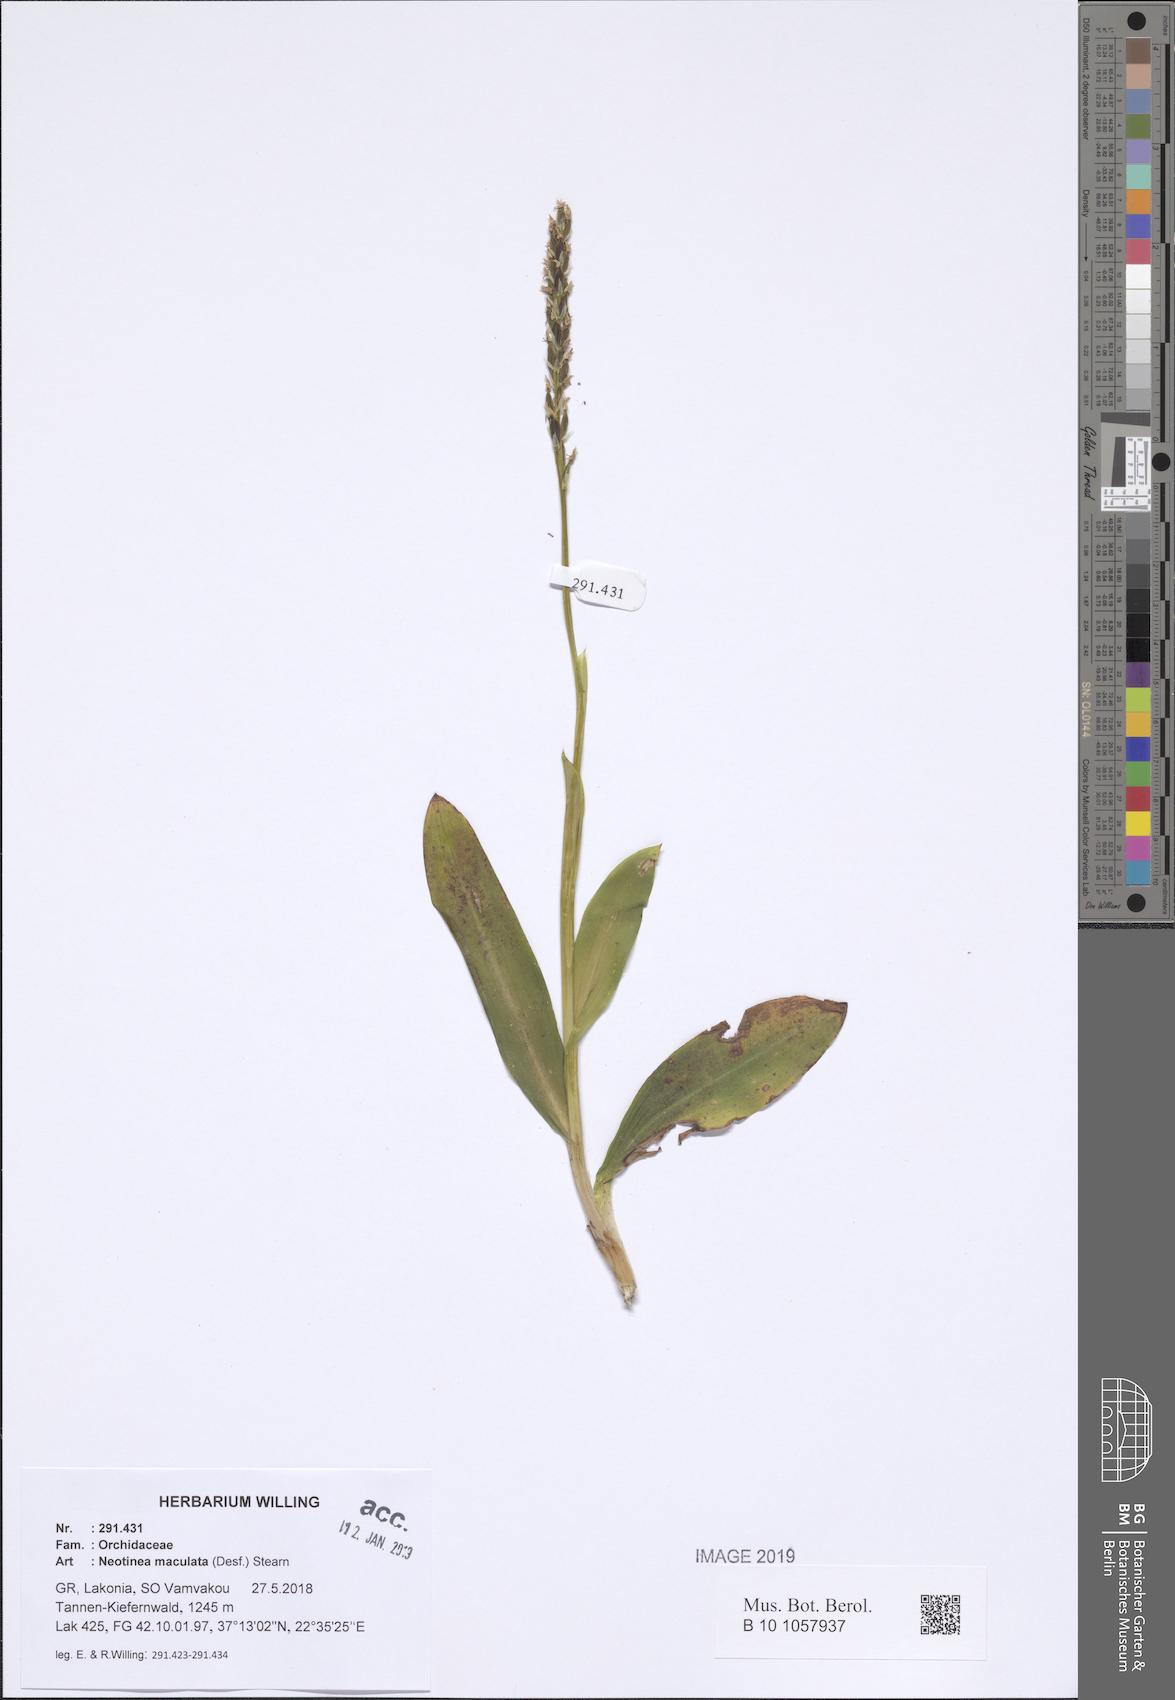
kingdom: Plantae
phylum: Tracheophyta
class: Liliopsida
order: Asparagales
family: Orchidaceae
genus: Neotinea
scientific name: Neotinea maculata
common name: Dense-flowered orchid
